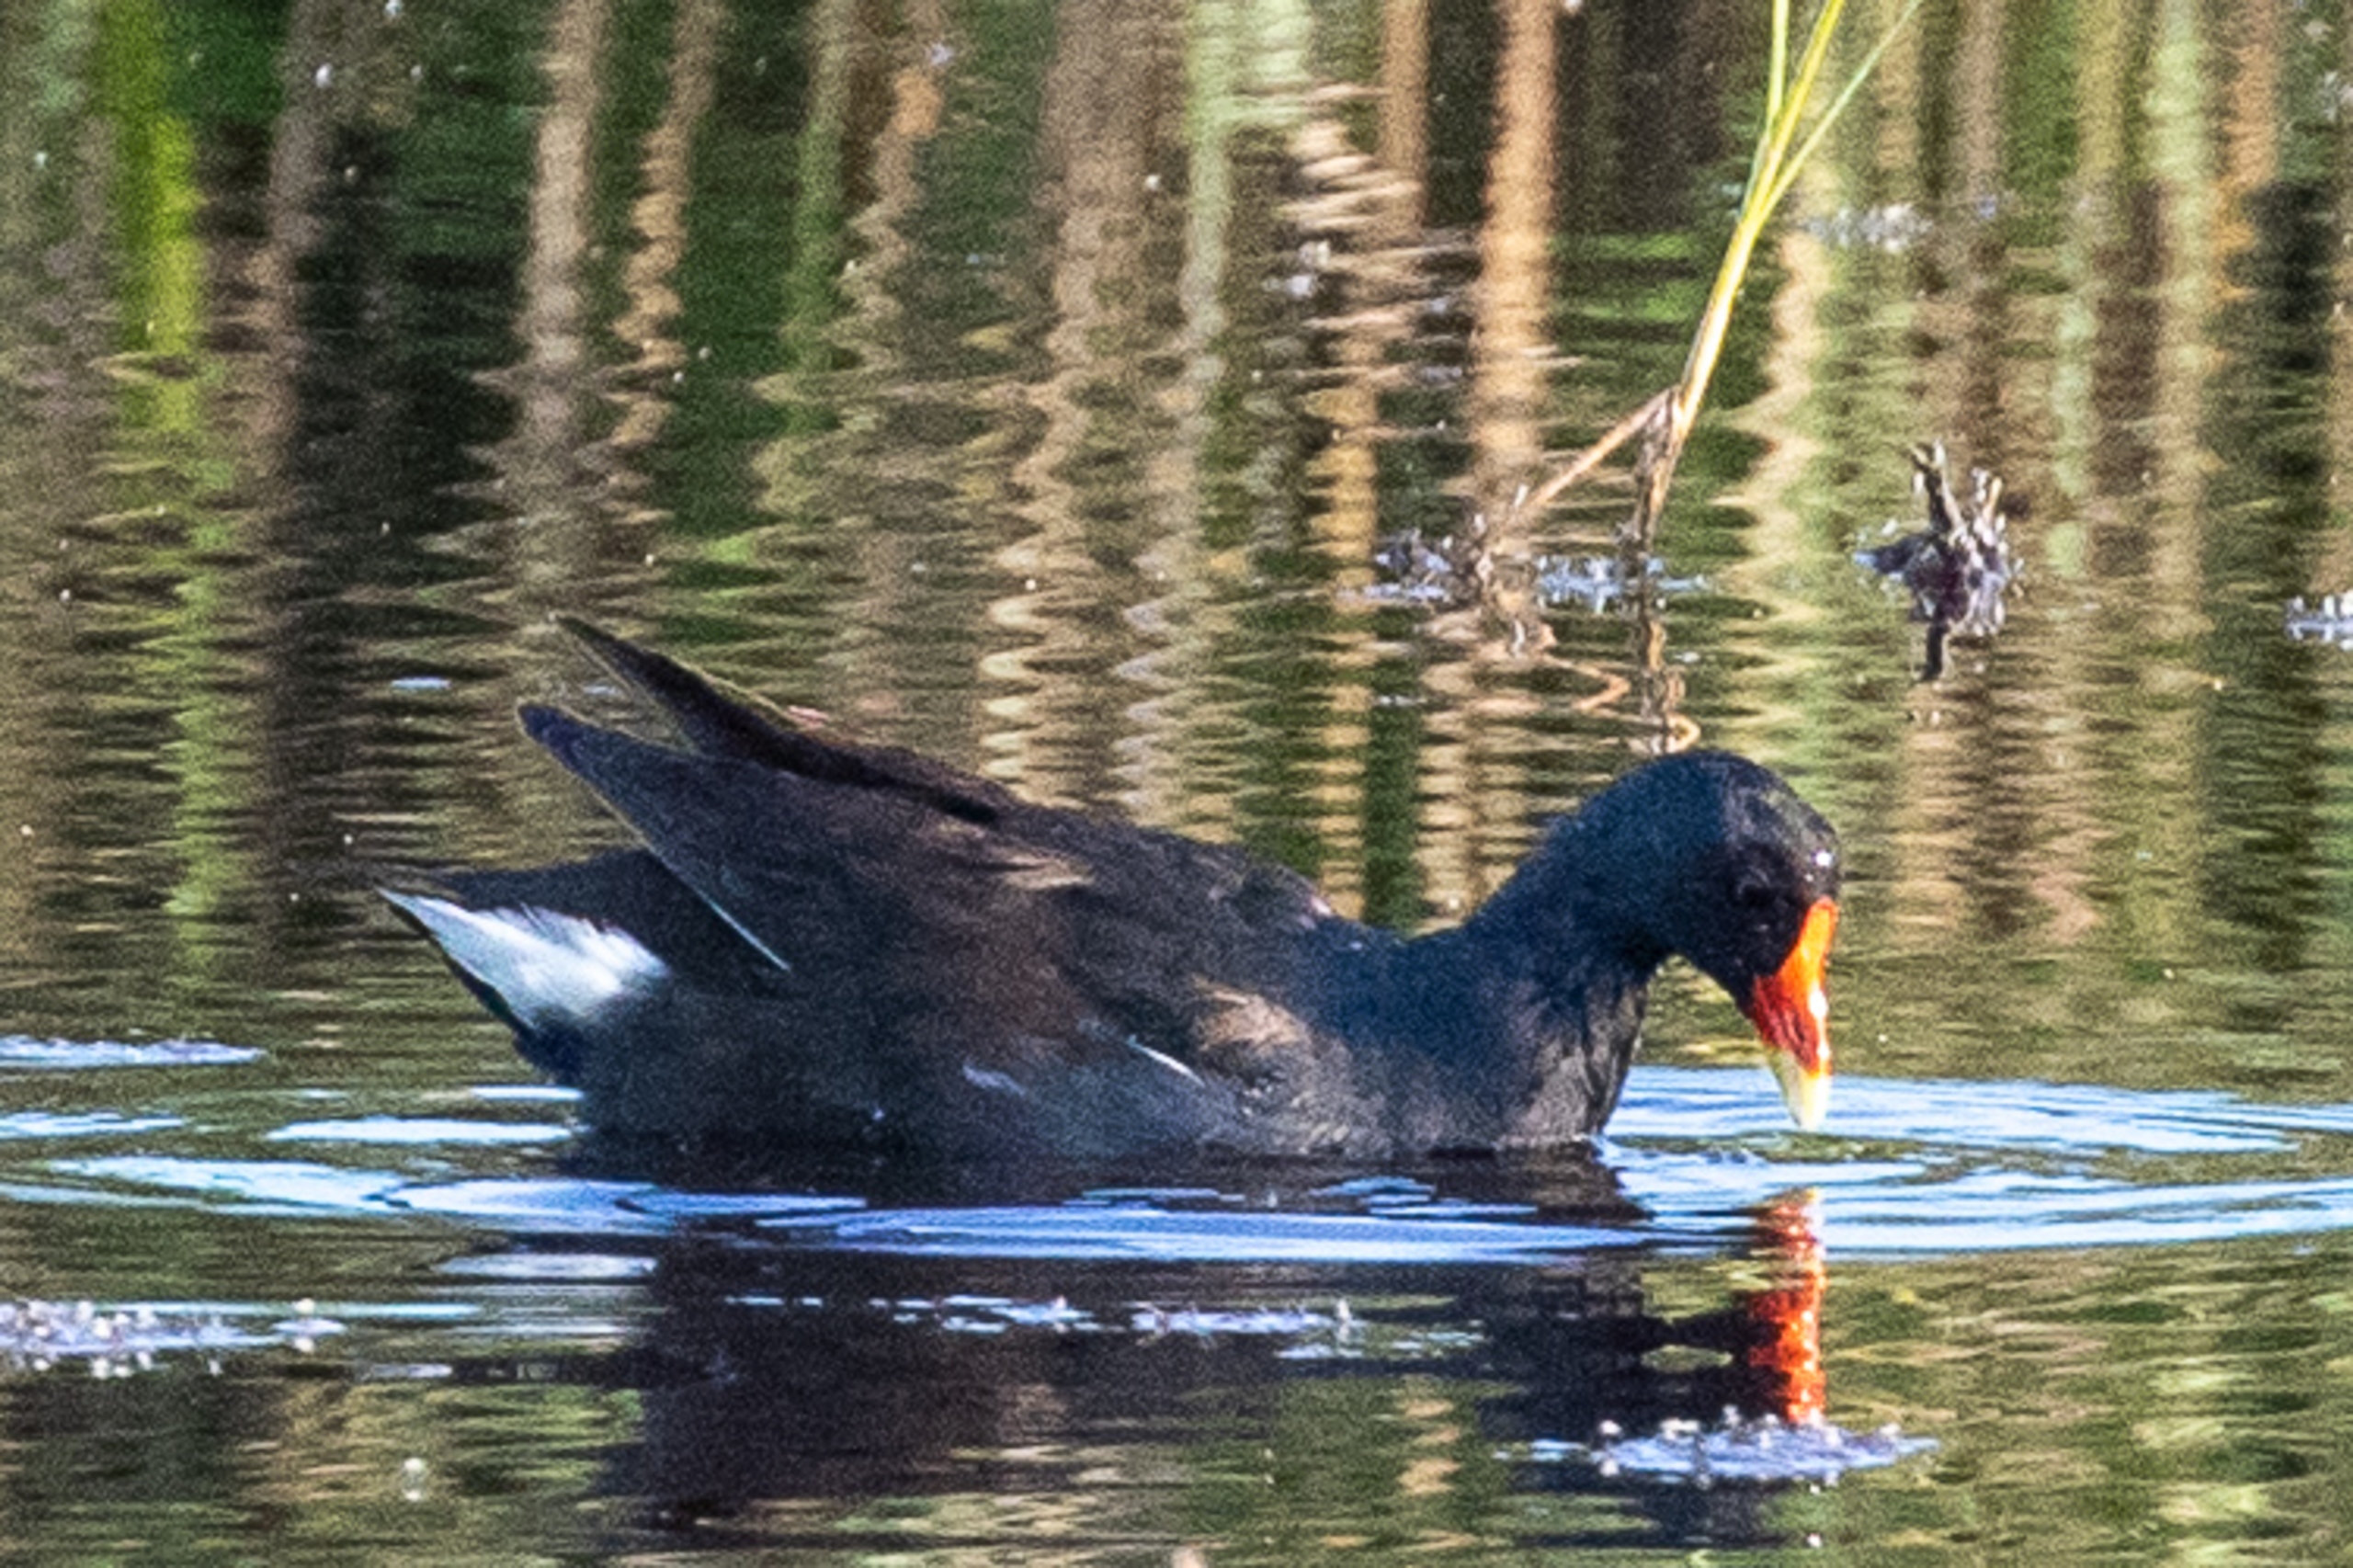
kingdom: Animalia
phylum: Chordata
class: Aves
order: Gruiformes
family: Rallidae
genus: Gallinula
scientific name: Gallinula chloropus
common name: Grønbenet rørhøne
